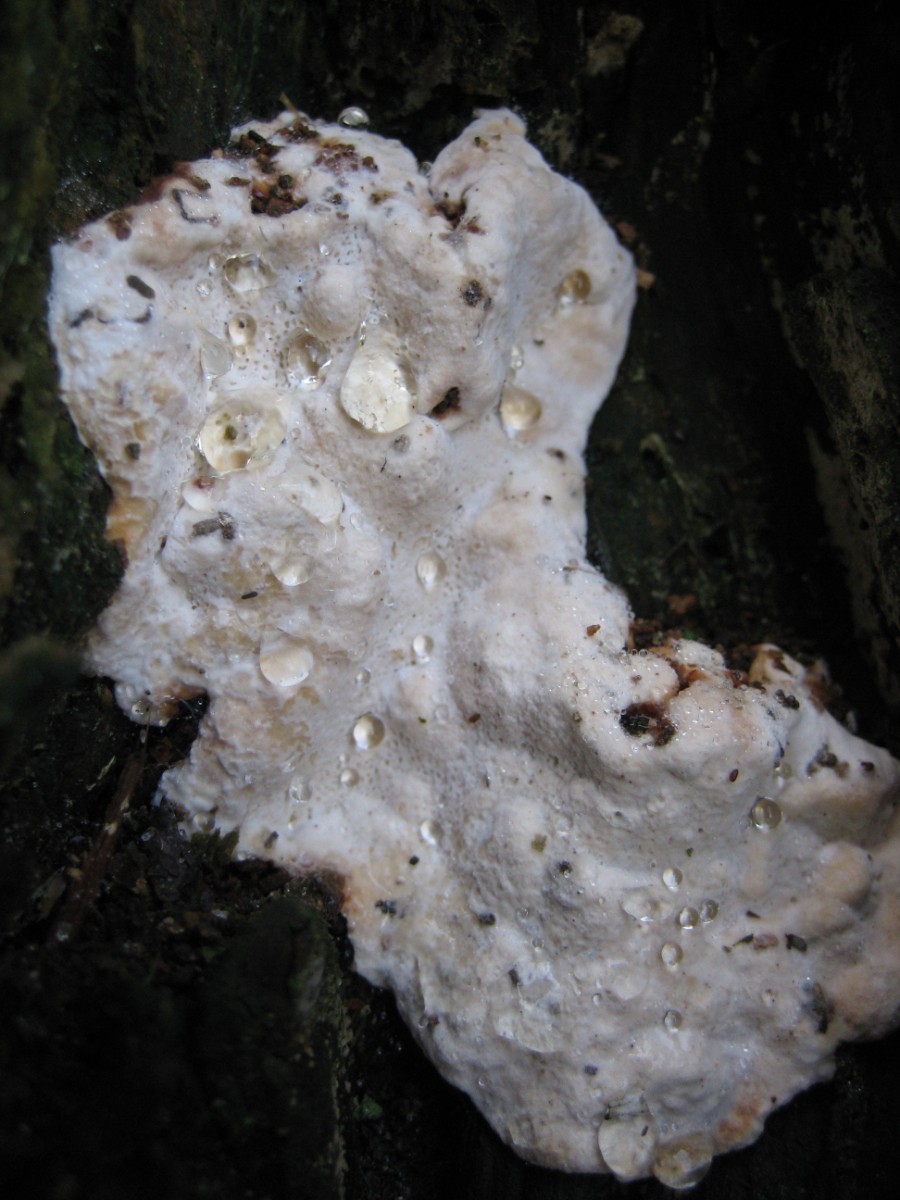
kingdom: Fungi
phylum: Basidiomycota
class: Agaricomycetes
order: Corticiales
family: Corticiaceae
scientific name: Corticiaceae
